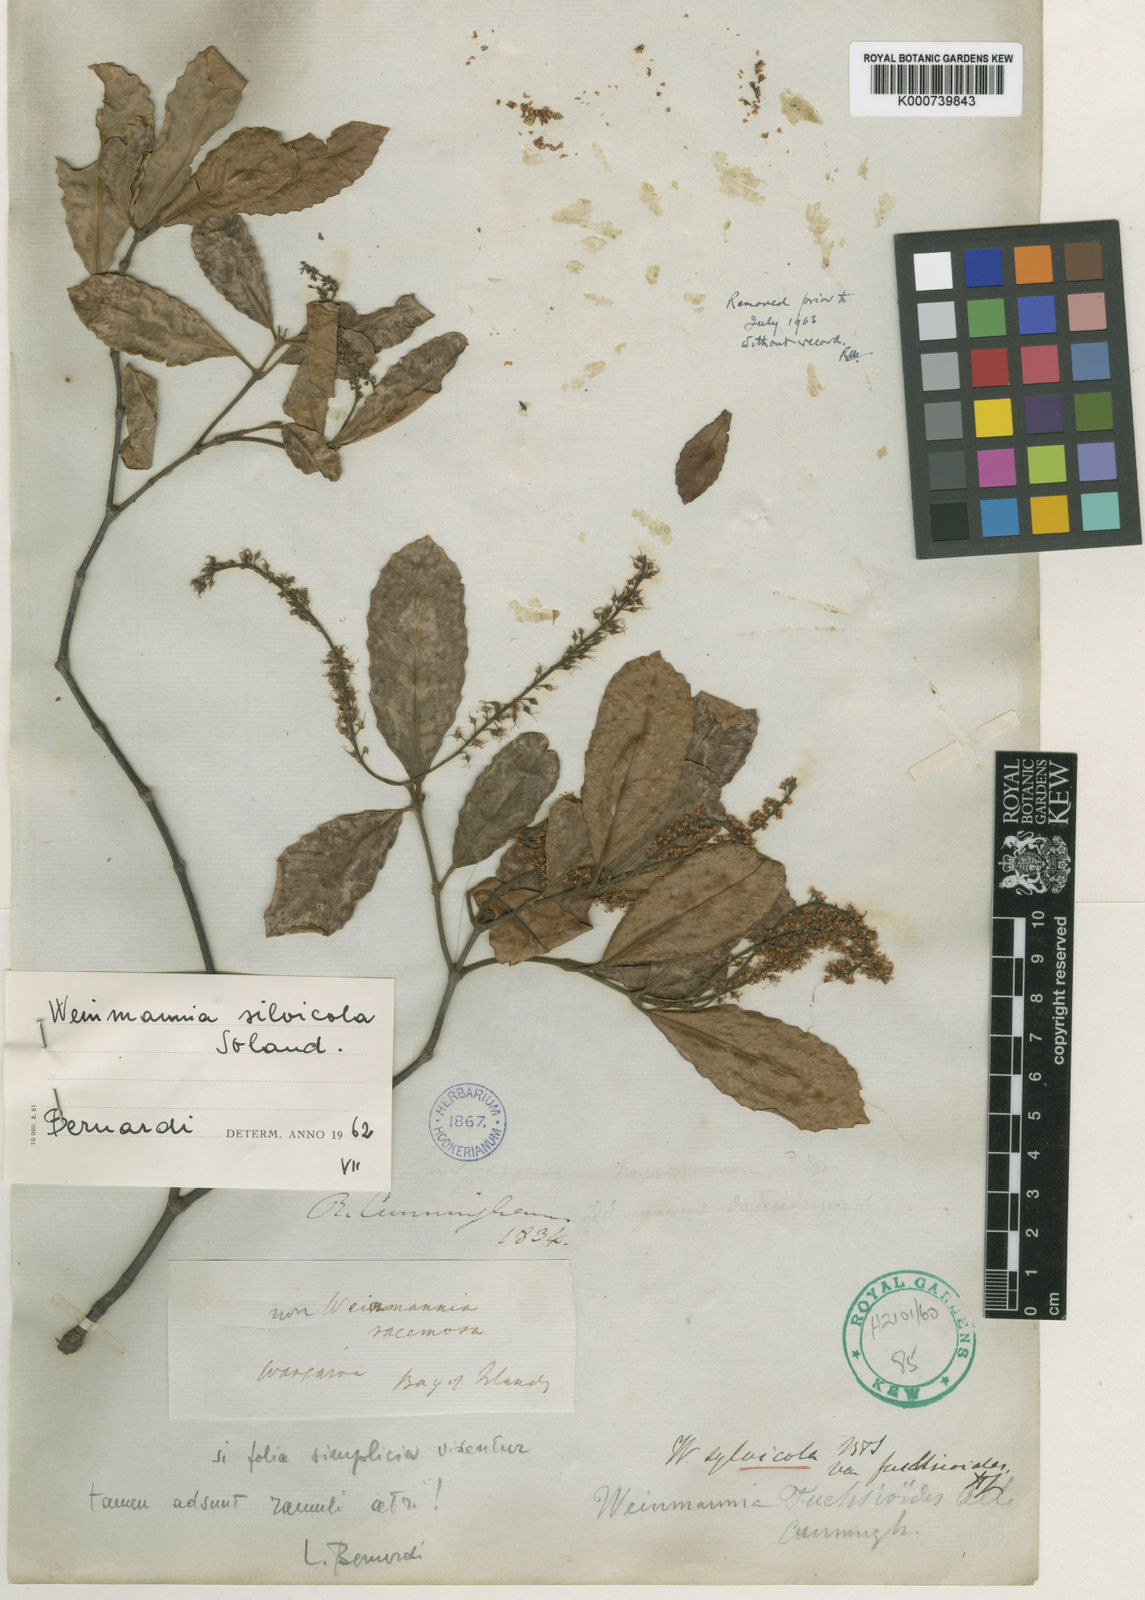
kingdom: Plantae
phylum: Tracheophyta
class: Magnoliopsida
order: Oxalidales
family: Cunoniaceae
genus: Pterophylla
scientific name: Pterophylla sylvicola
